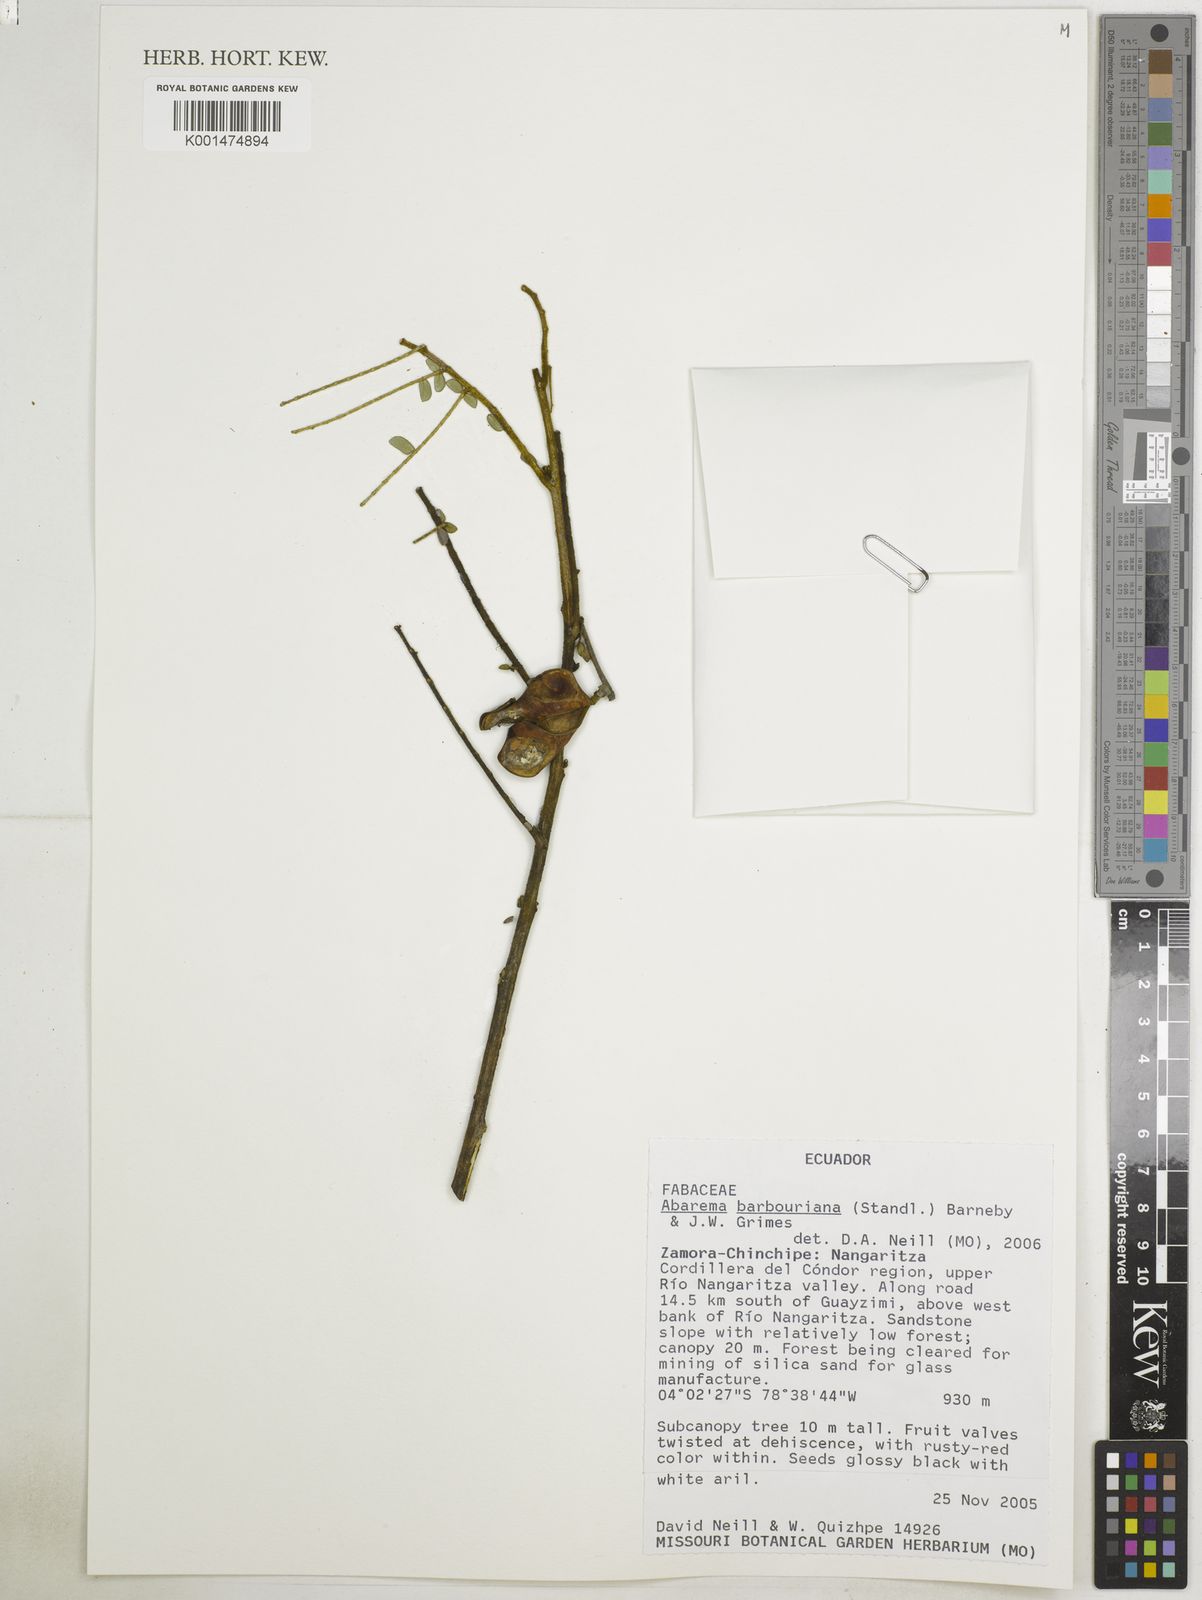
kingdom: Plantae
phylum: Tracheophyta
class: Magnoliopsida
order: Fabales
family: Fabaceae
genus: Jupunba
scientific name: Jupunba barbouriana
